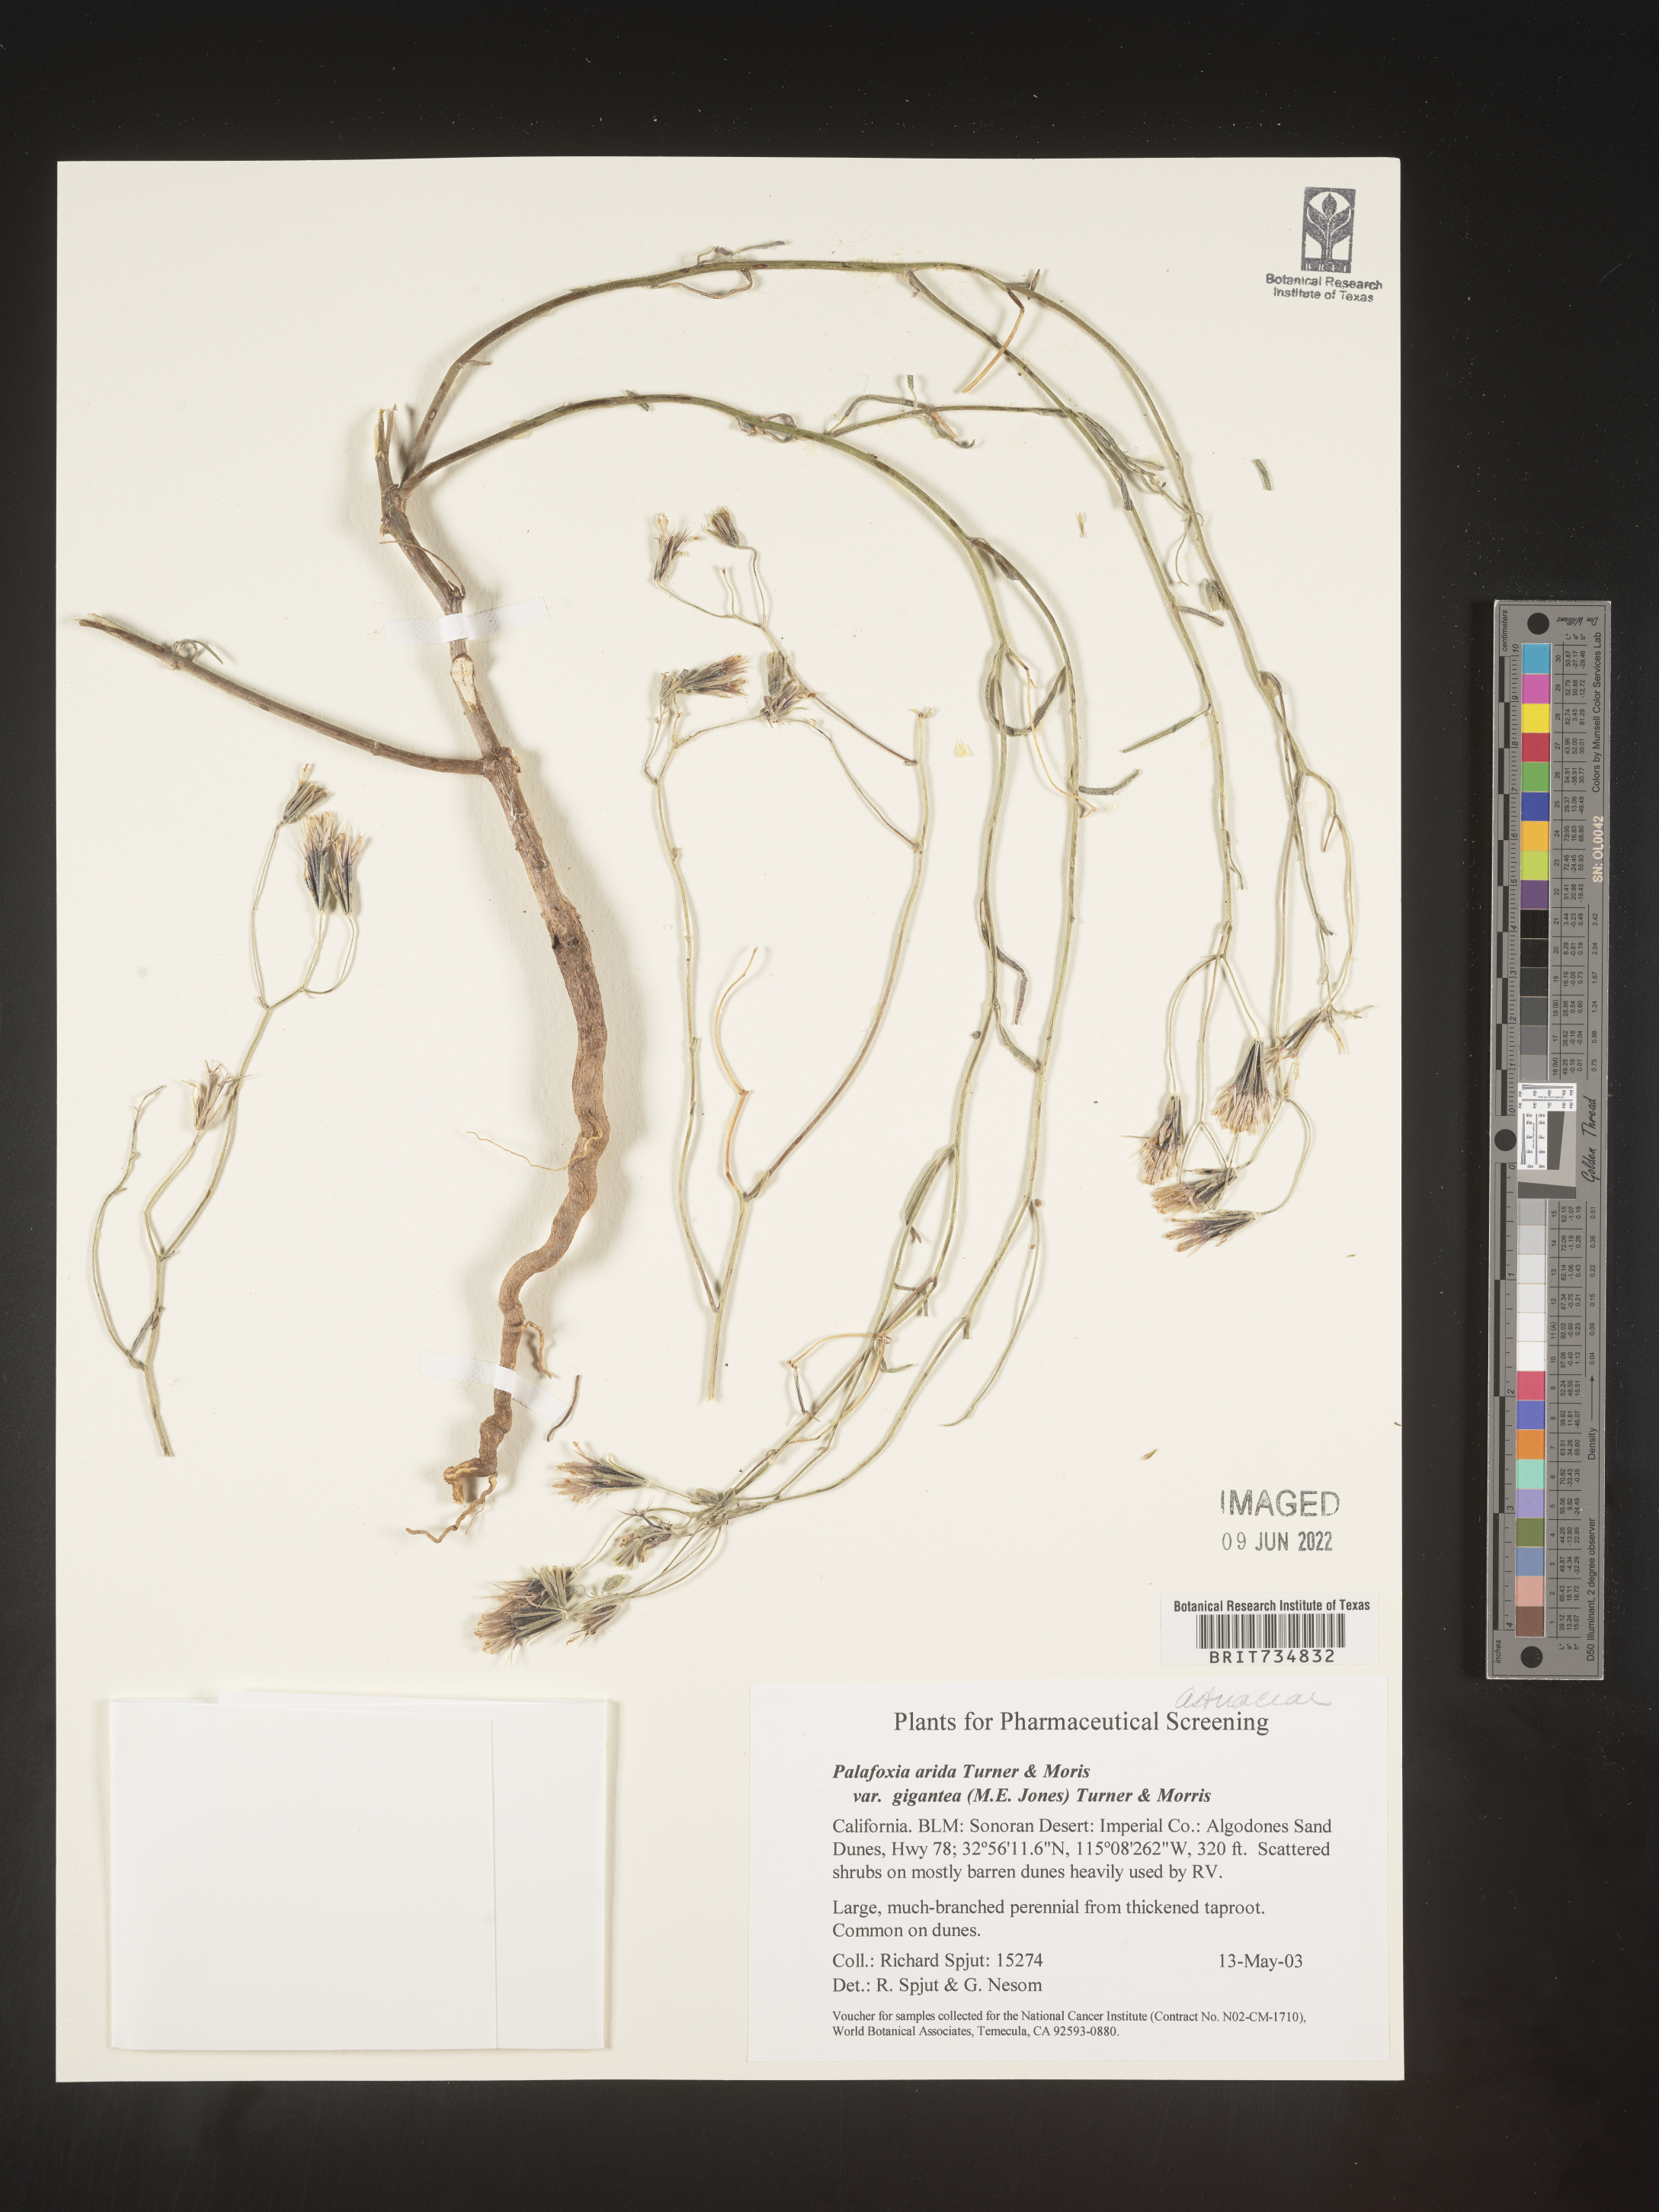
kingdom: Plantae
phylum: Tracheophyta
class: Magnoliopsida
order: Asterales
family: Asteraceae
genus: Palafoxia
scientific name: Palafoxia arida
